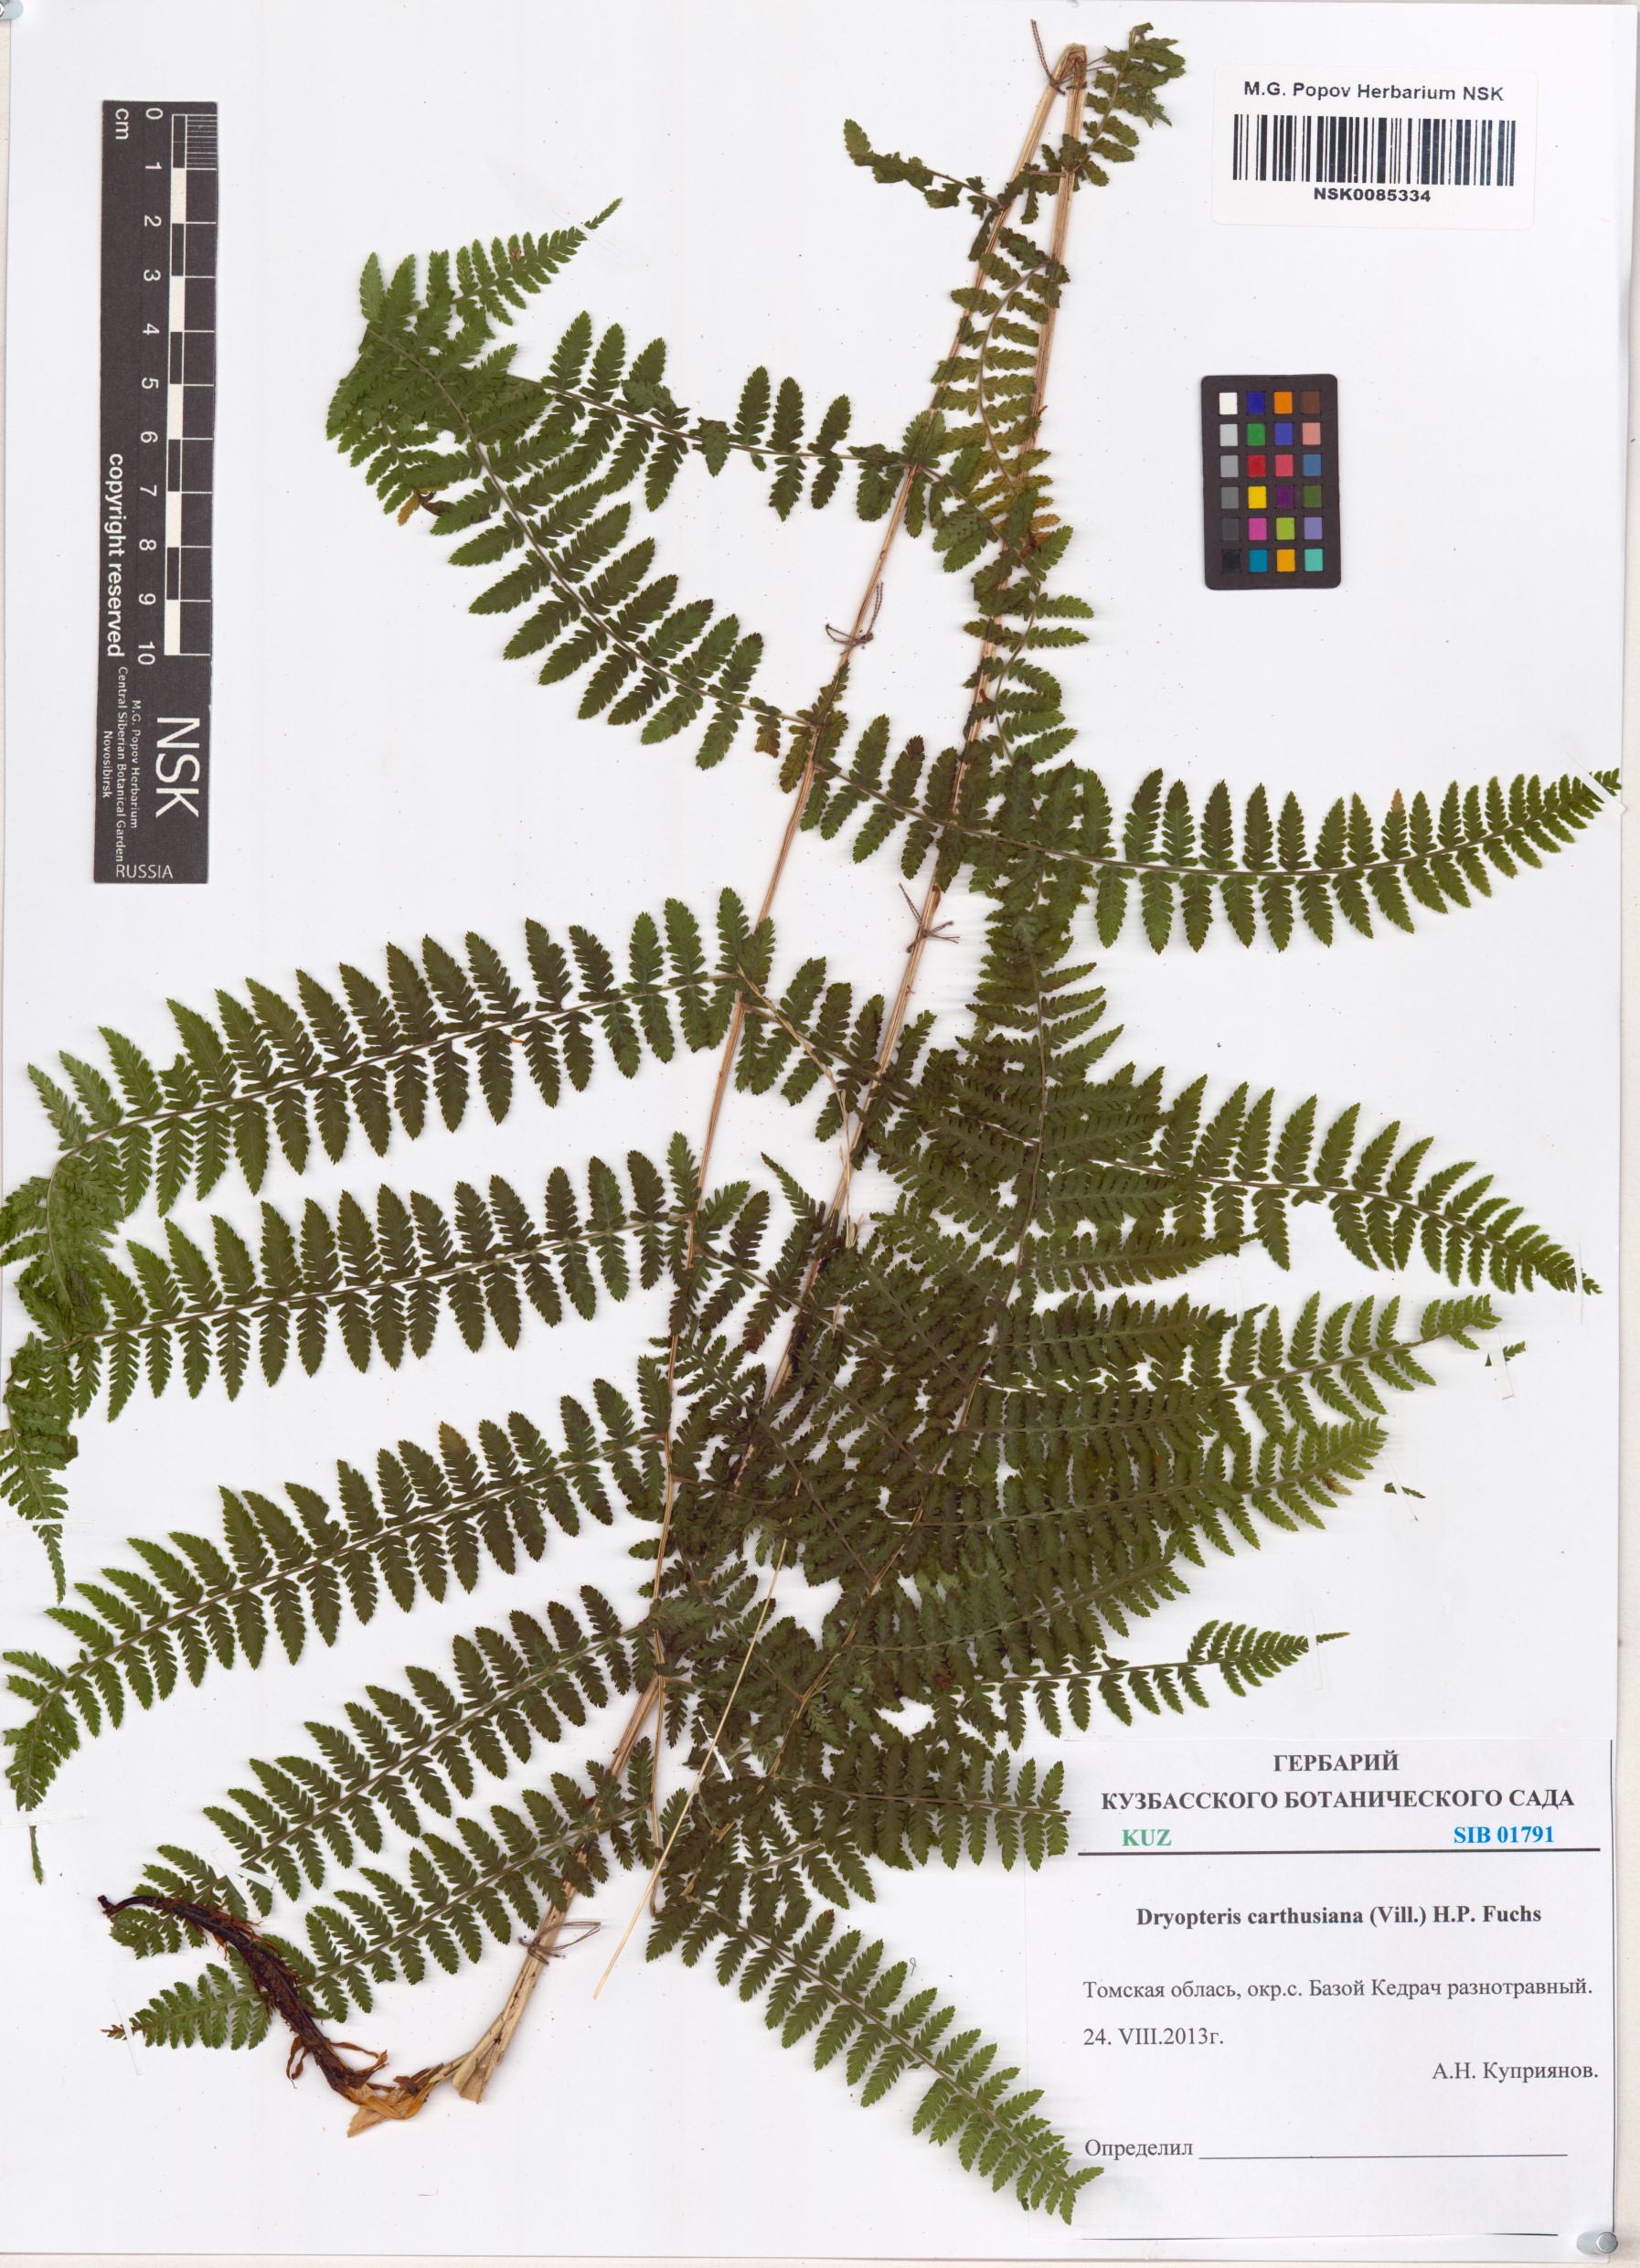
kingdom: Plantae
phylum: Tracheophyta
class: Polypodiopsida
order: Polypodiales
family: Dryopteridaceae
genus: Dryopteris
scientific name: Dryopteris carthusiana
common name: Narrow buckler-fern
